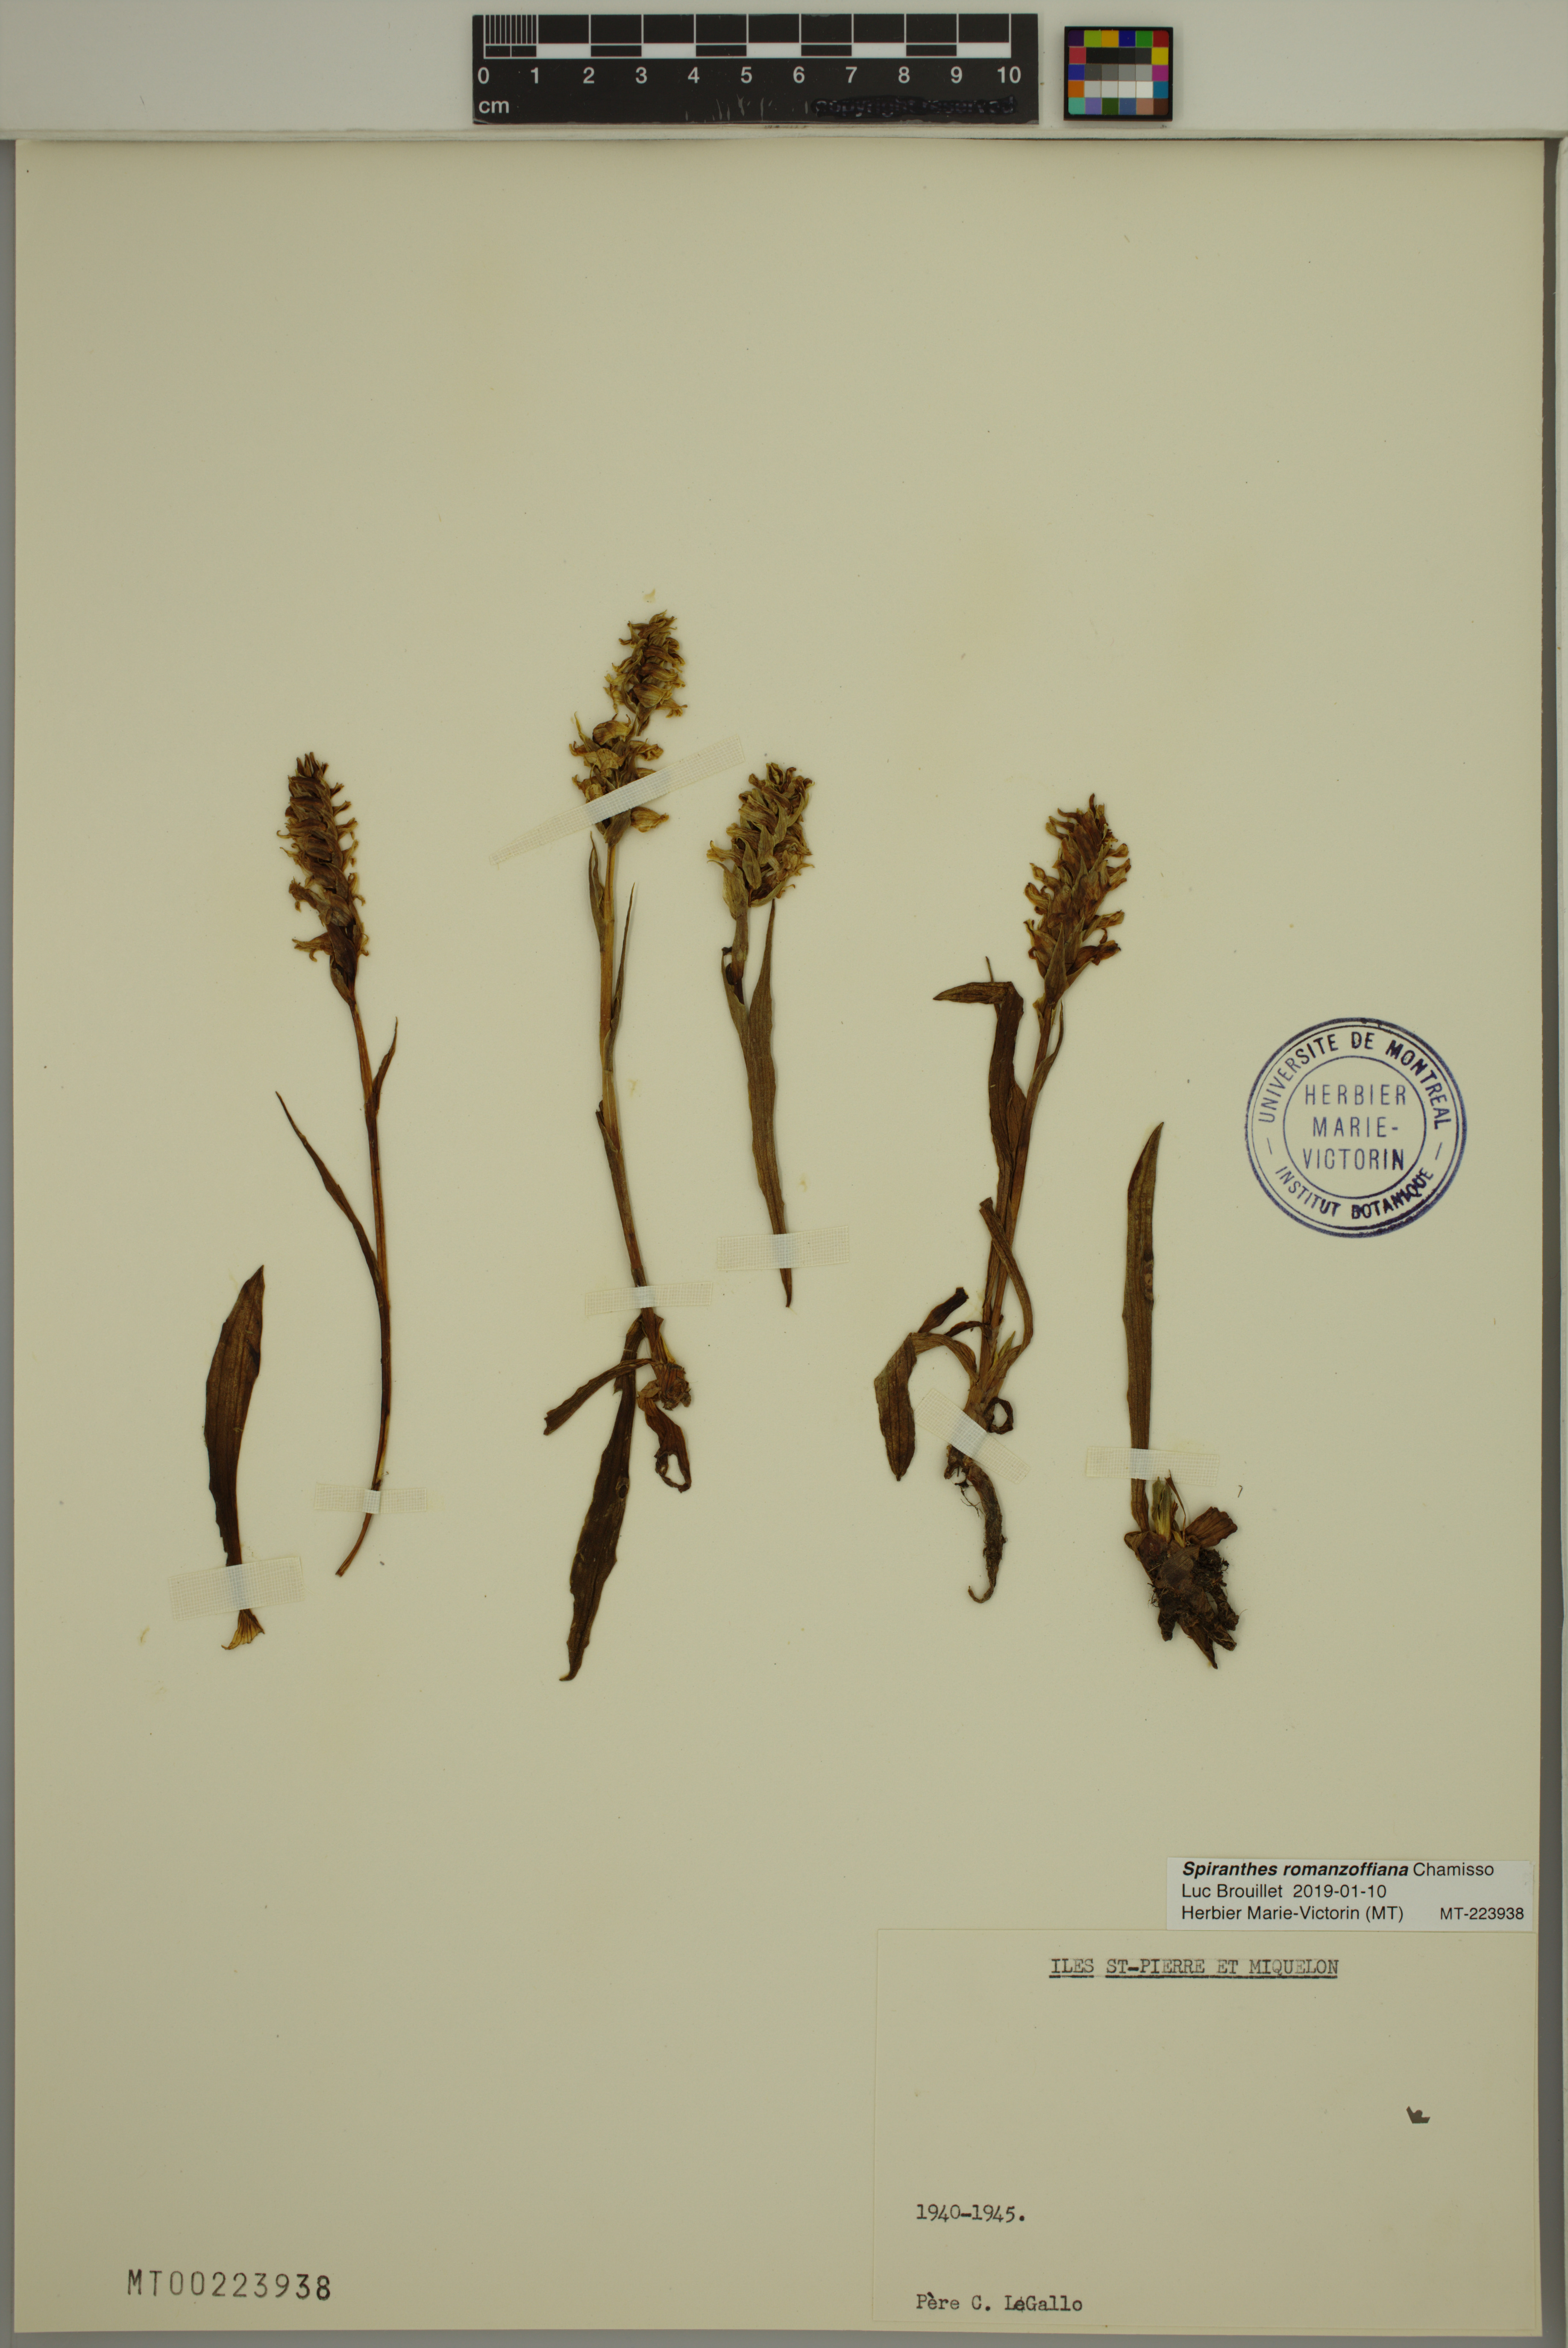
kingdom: Plantae
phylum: Tracheophyta
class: Liliopsida
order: Asparagales
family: Orchidaceae
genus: Spiranthes
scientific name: Spiranthes romanzoffiana
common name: Irish lady's-tresses
